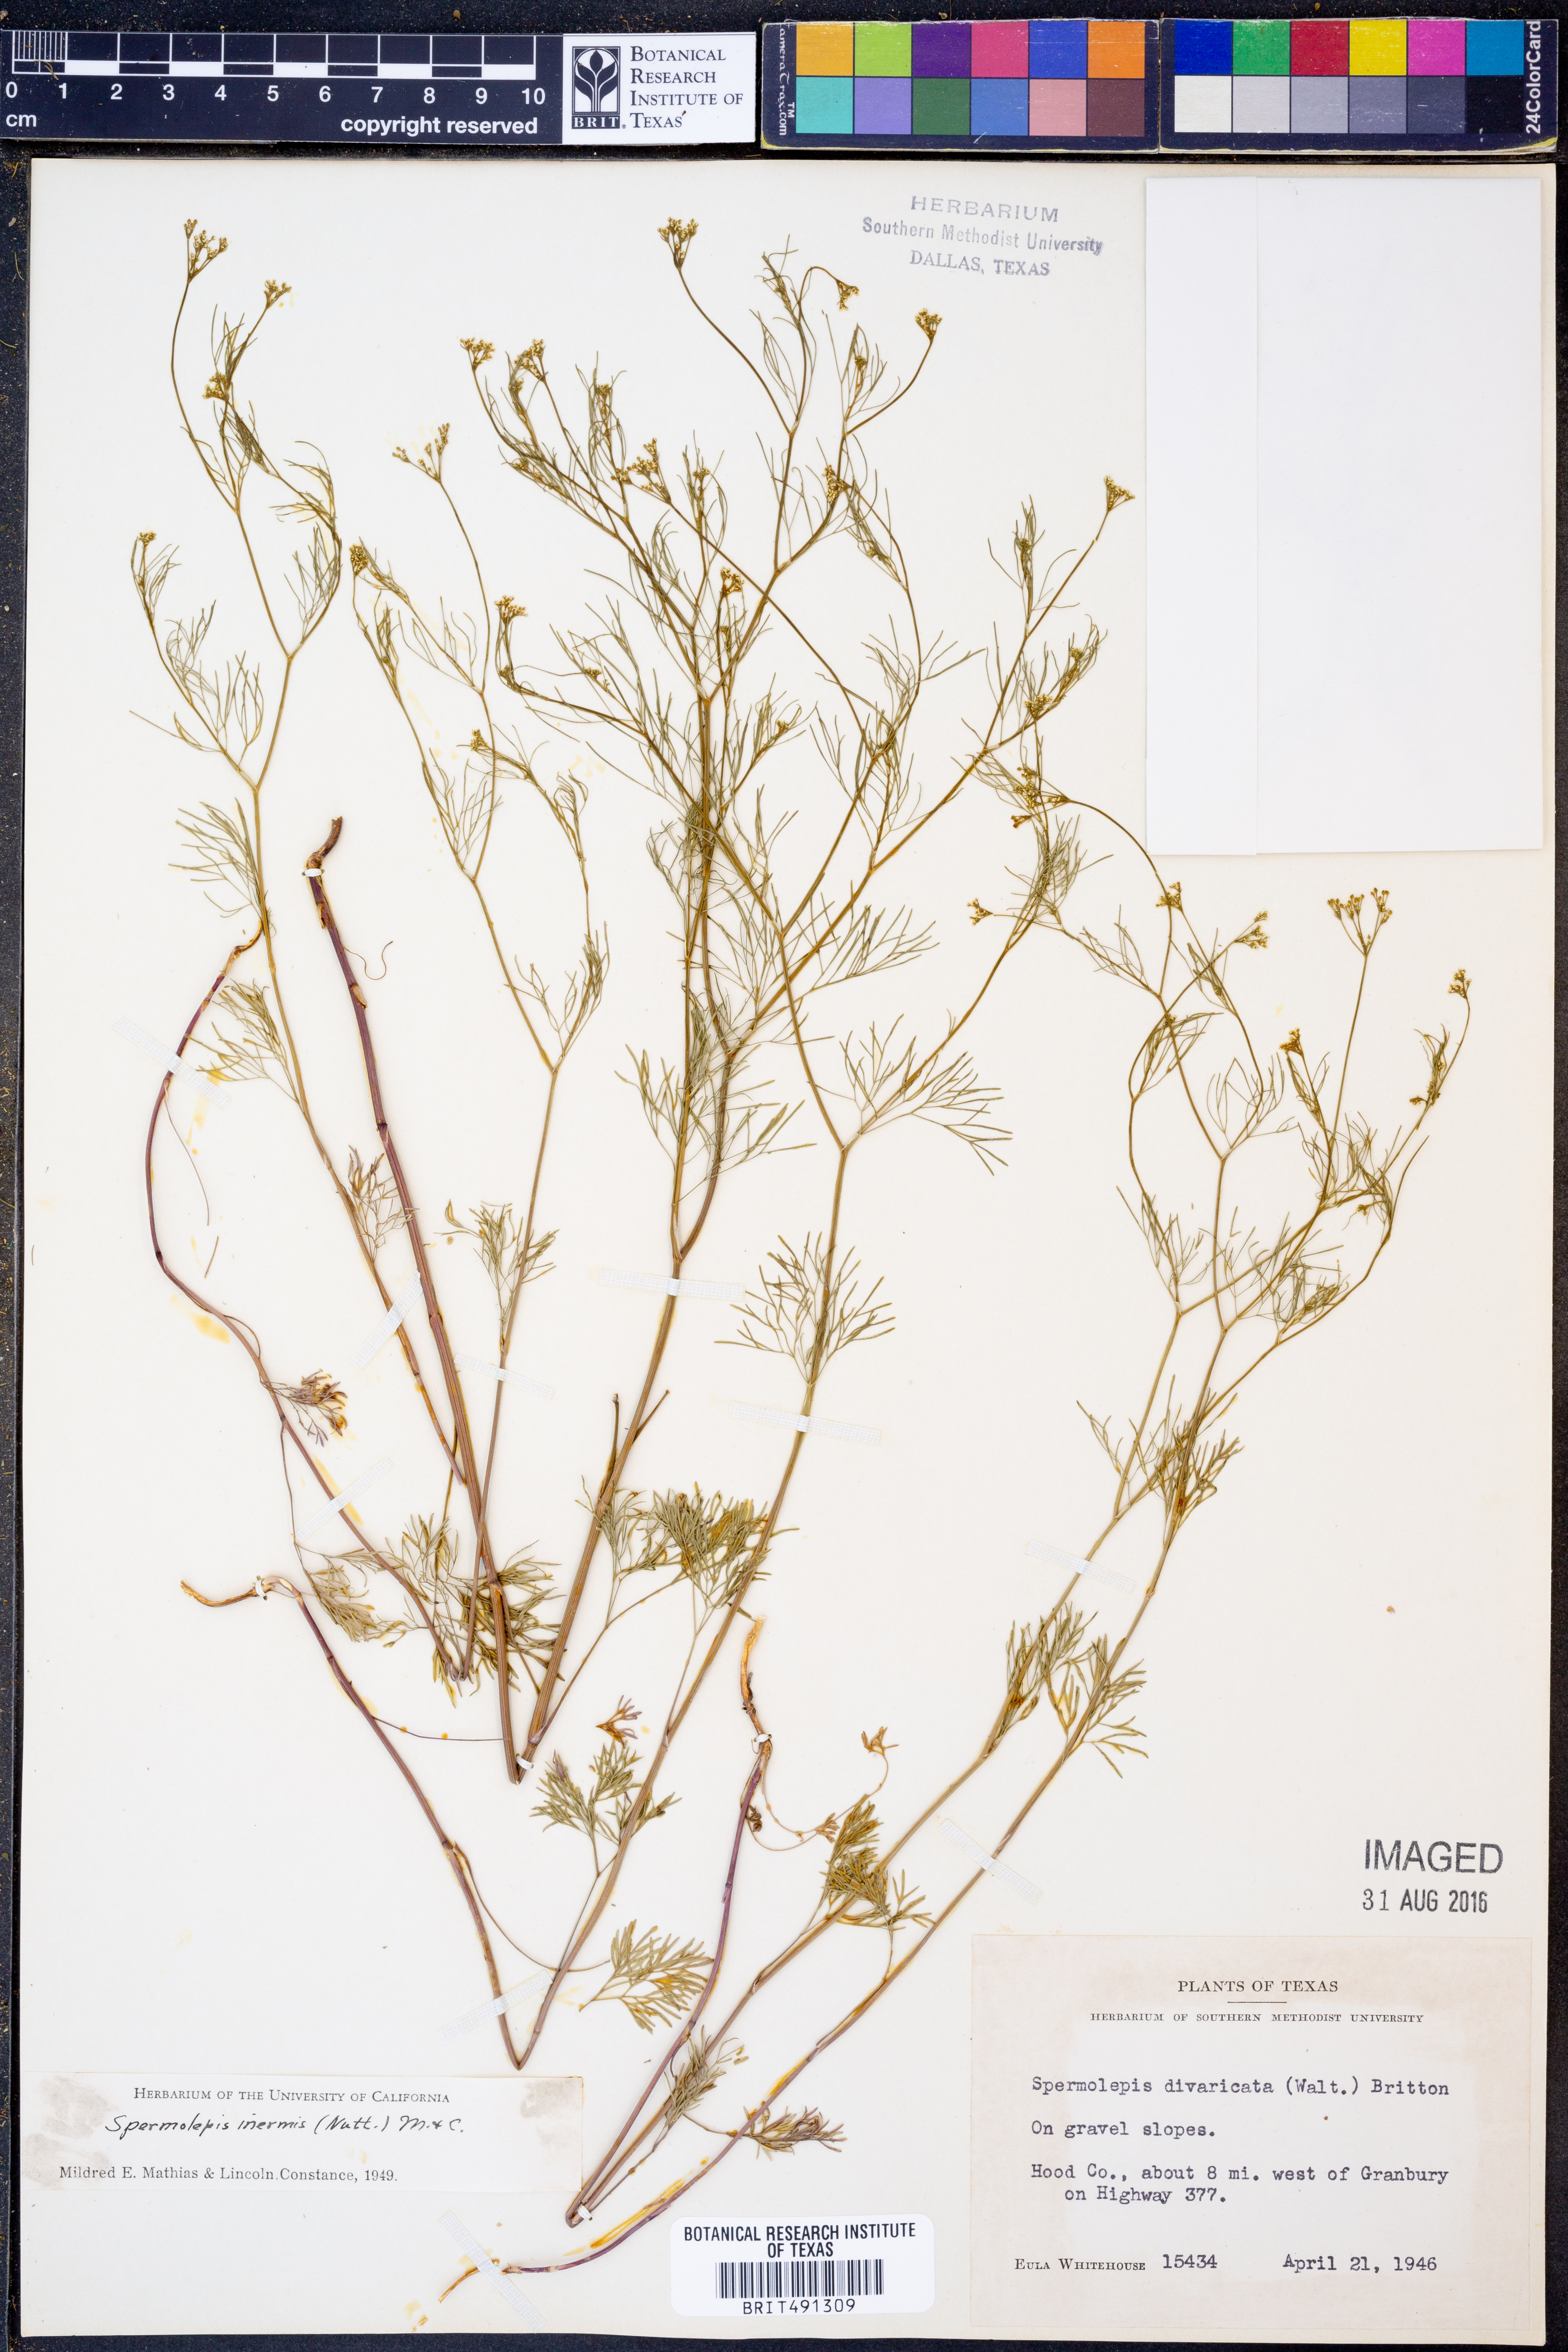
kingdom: Plantae
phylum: Tracheophyta
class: Magnoliopsida
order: Apiales
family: Apiaceae
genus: Spermolepis
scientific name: Spermolepis inermis
